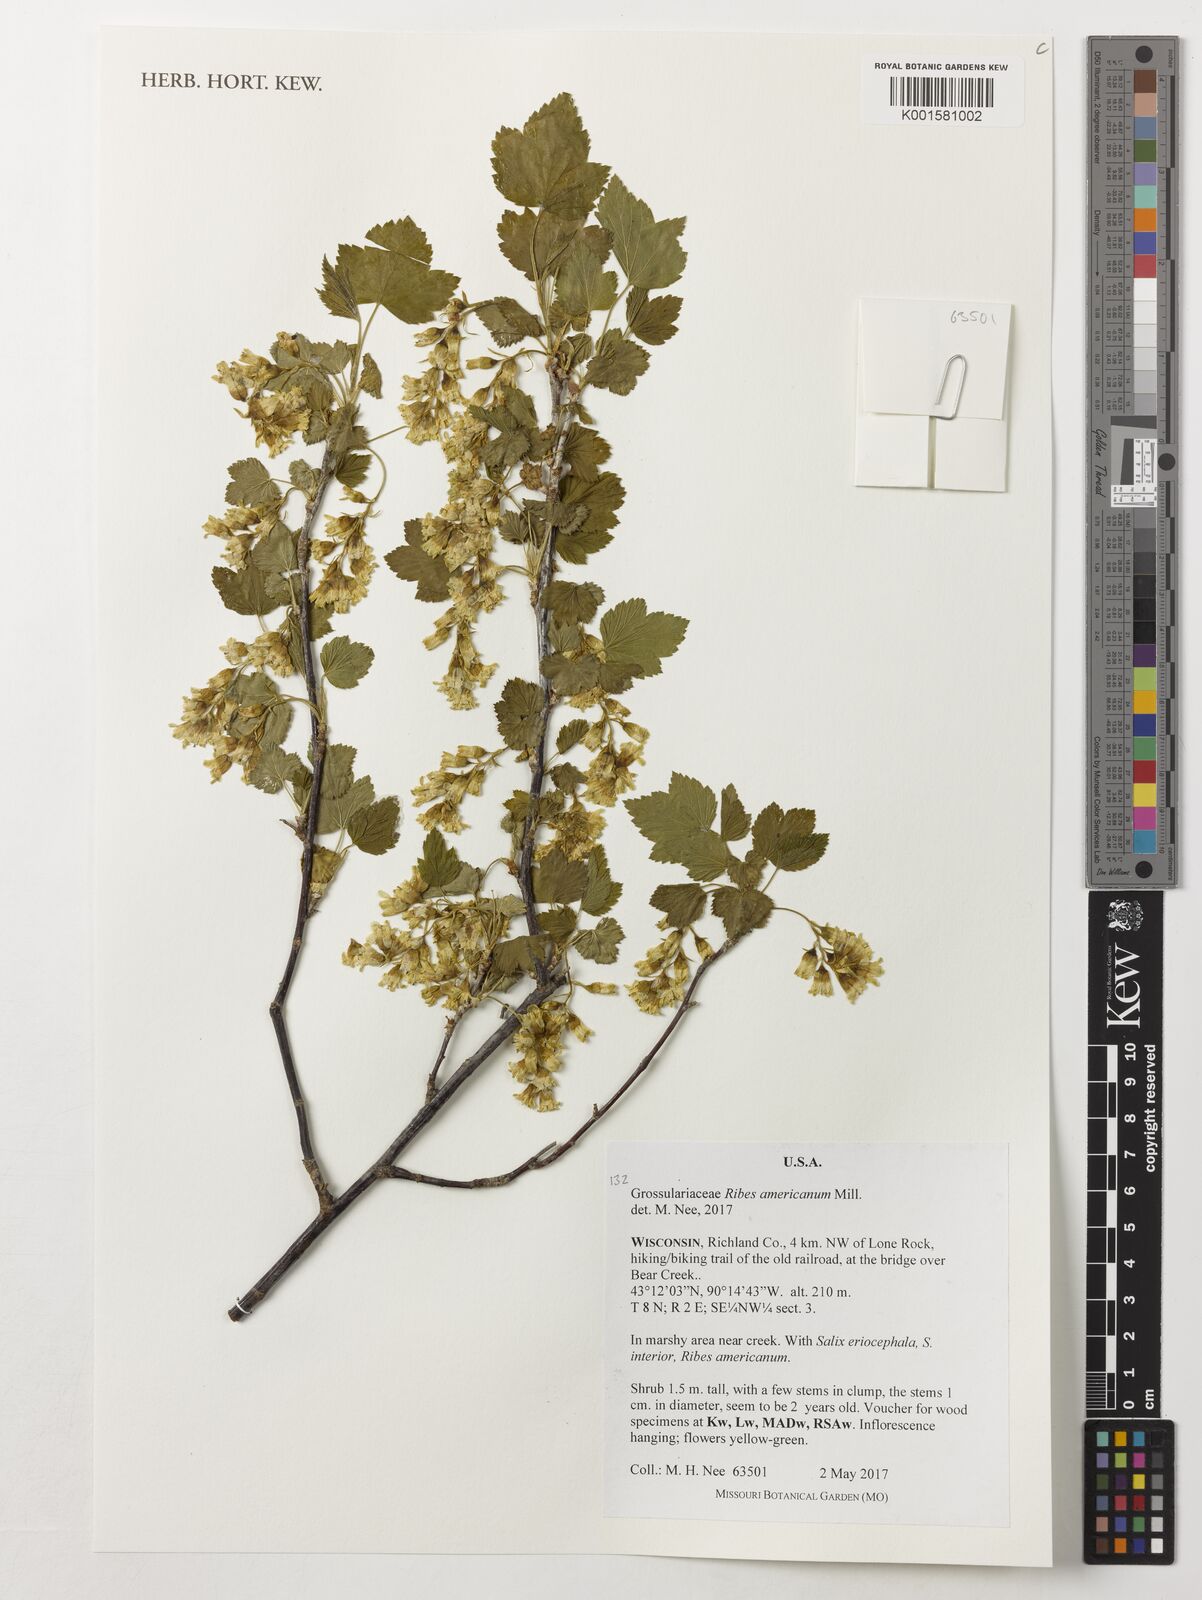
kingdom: Plantae
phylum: Tracheophyta
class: Magnoliopsida
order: Saxifragales
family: Grossulariaceae
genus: Ribes
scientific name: Ribes americanum
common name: American black currant
